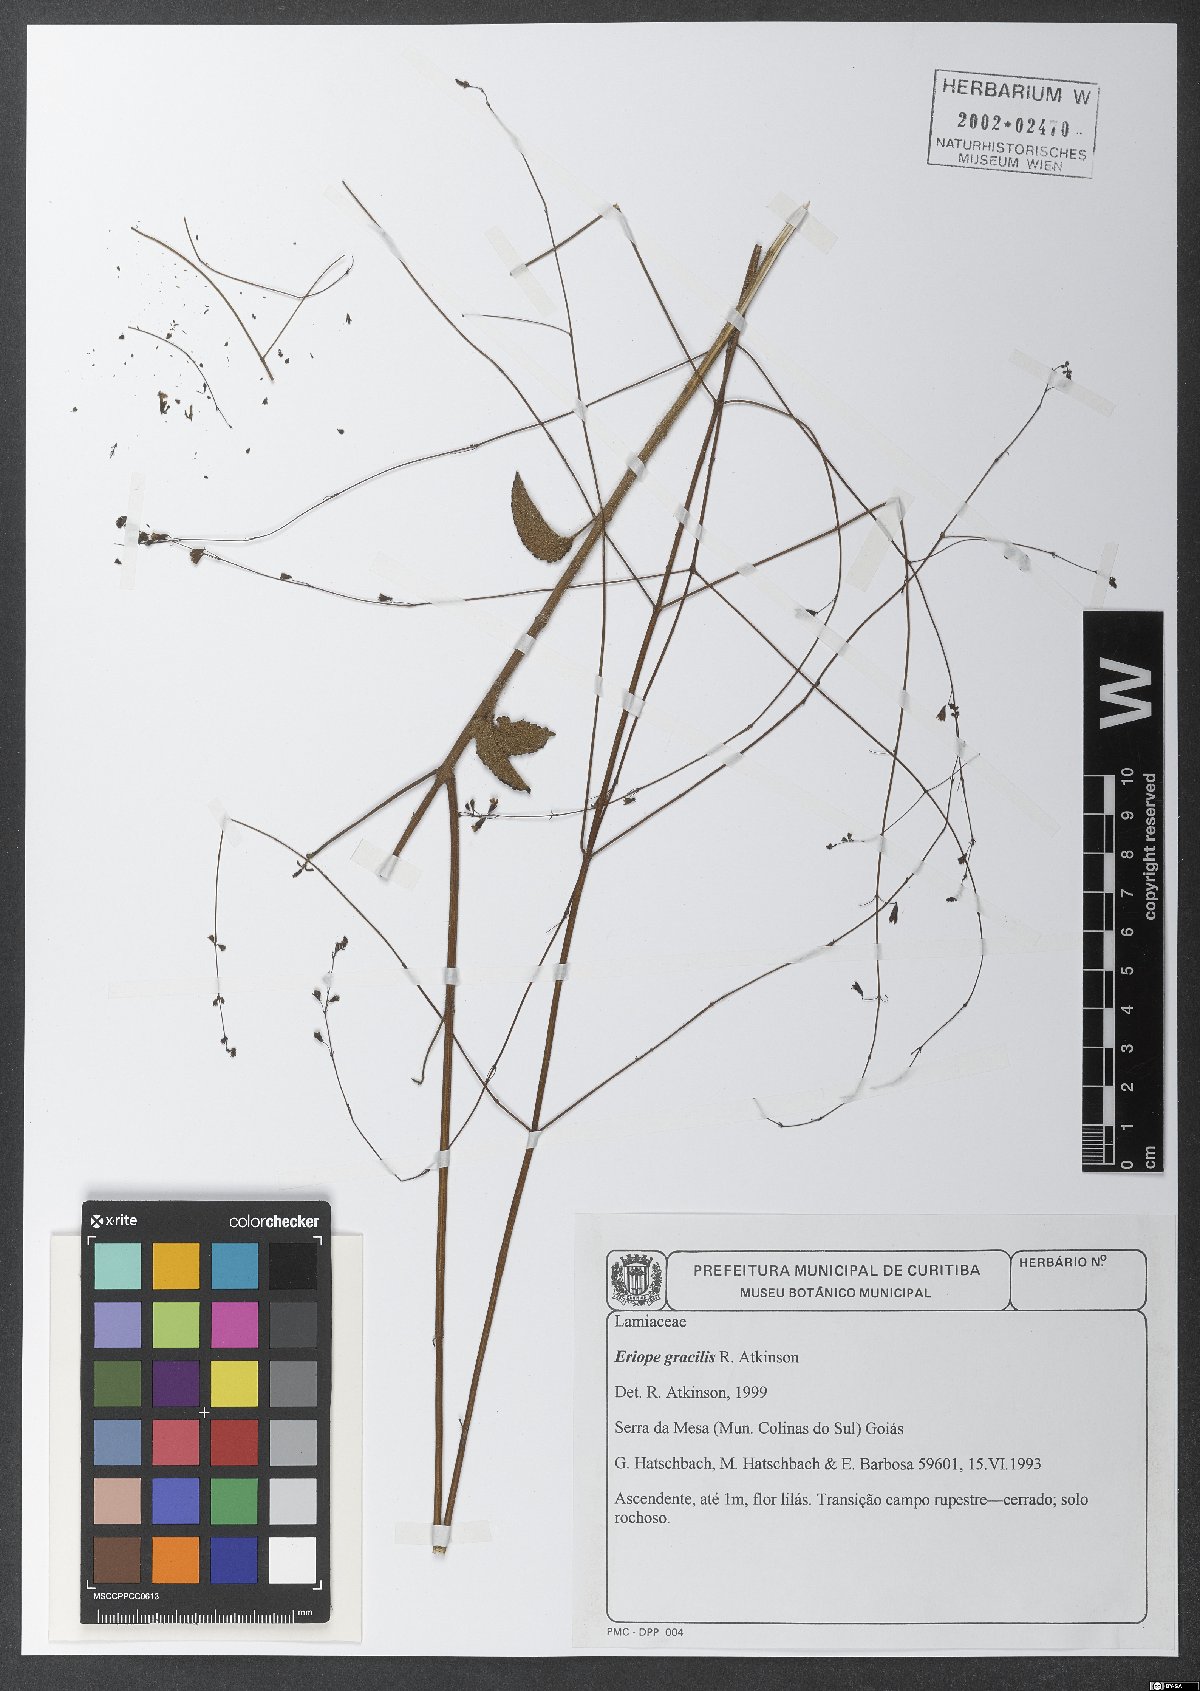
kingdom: Plantae
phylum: Tracheophyta
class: Magnoliopsida
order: Lamiales
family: Lamiaceae
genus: Eriope
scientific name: Eriope
